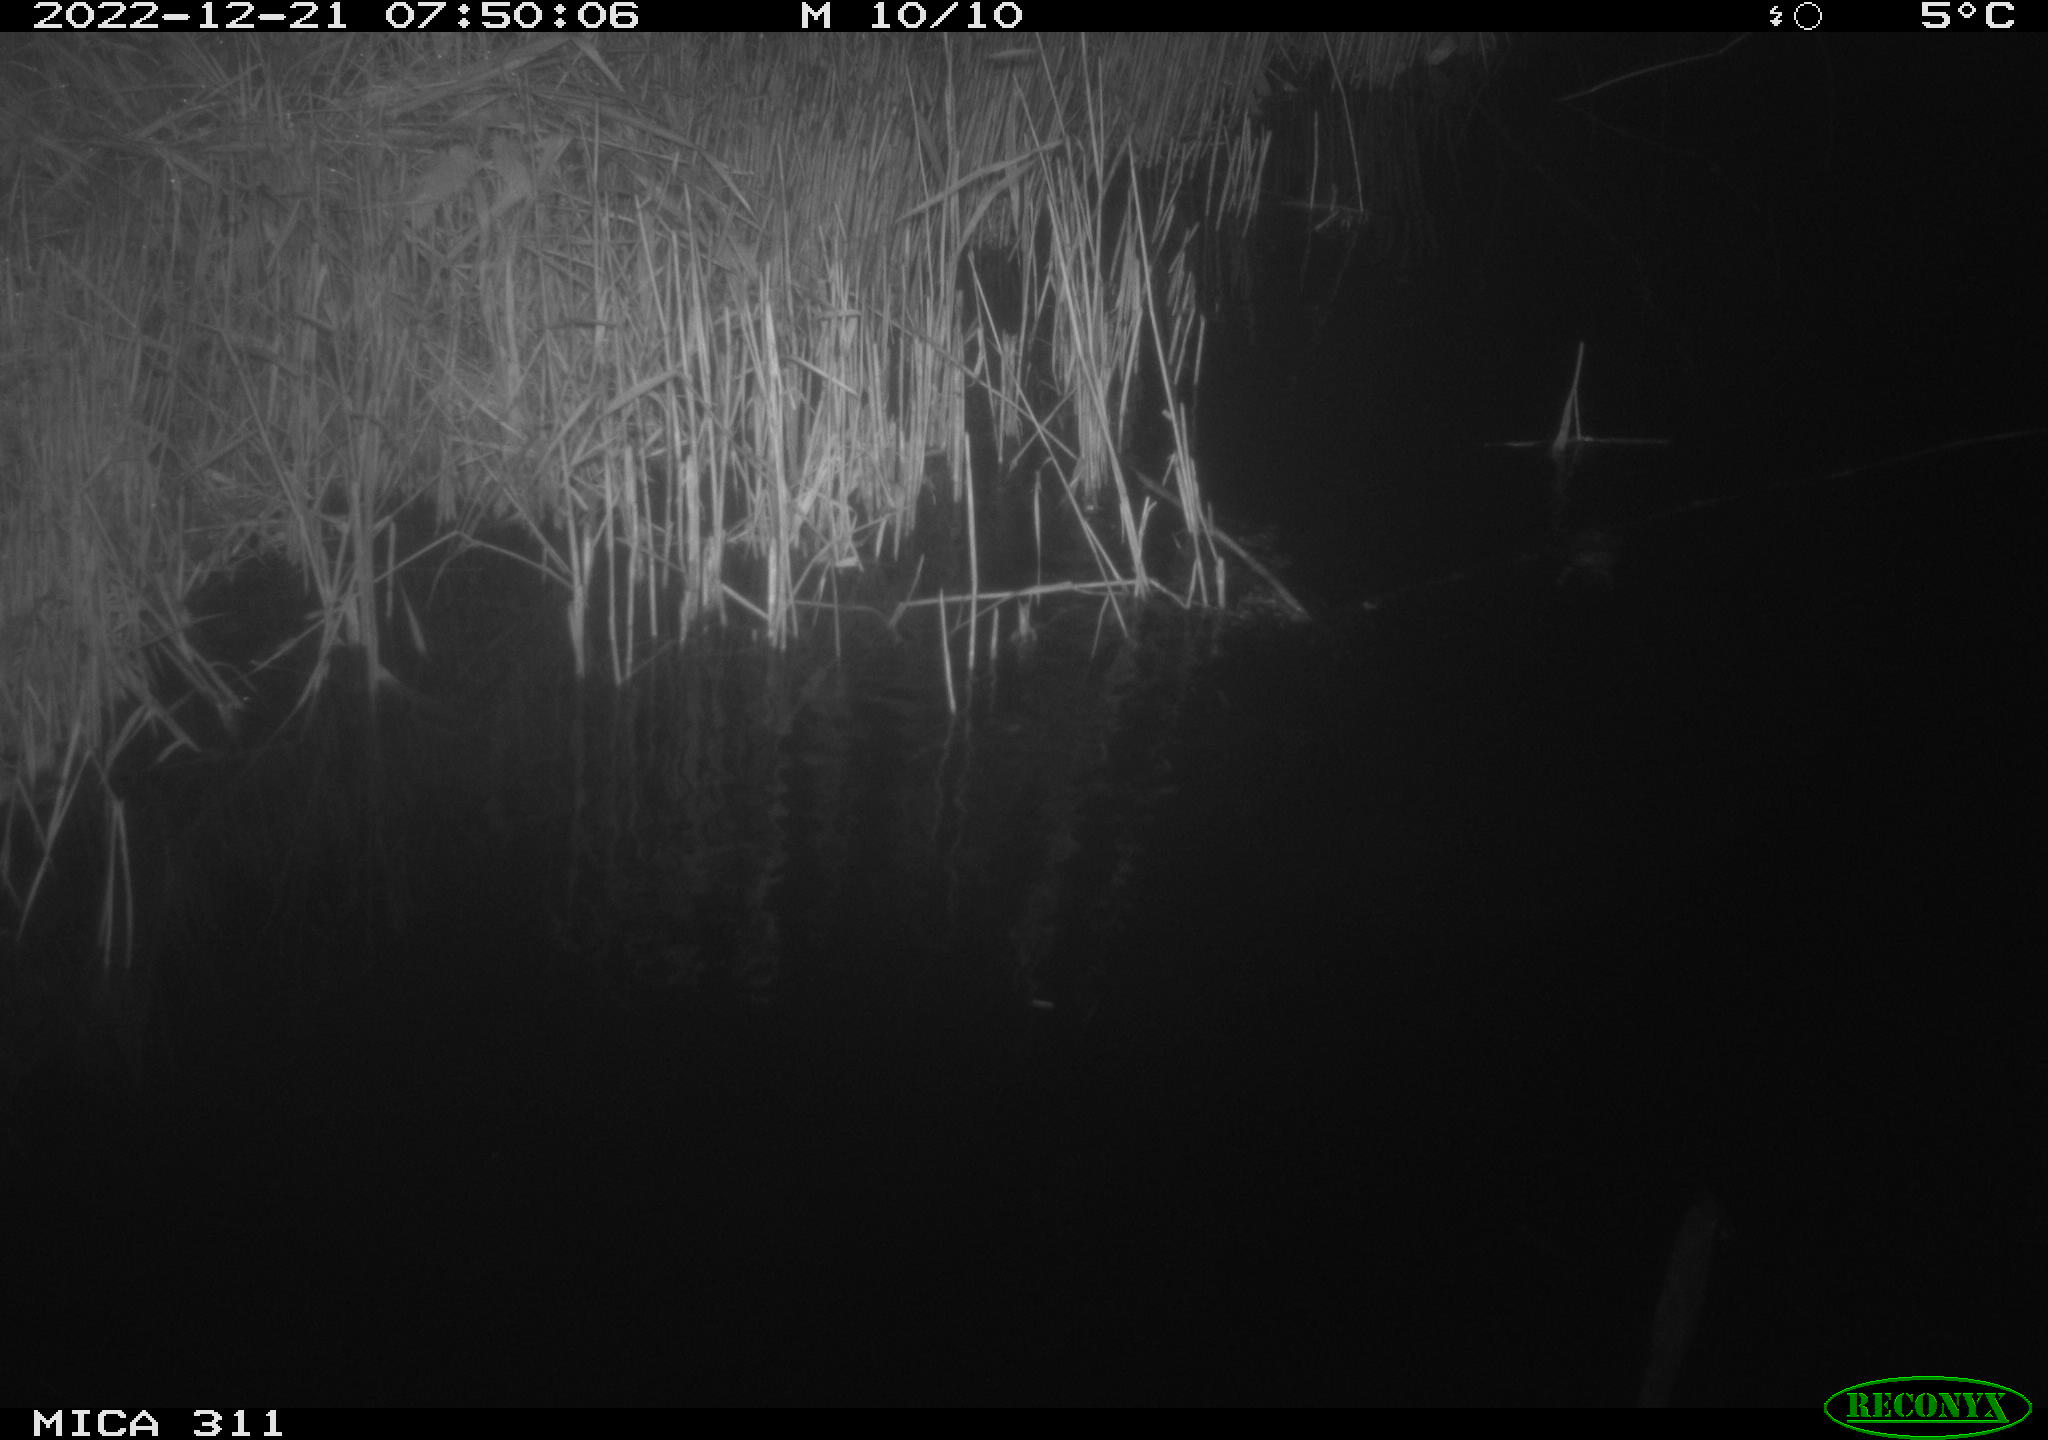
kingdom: Animalia
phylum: Chordata
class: Aves
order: Gruiformes
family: Rallidae
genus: Gallinula
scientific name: Gallinula chloropus
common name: Common moorhen
